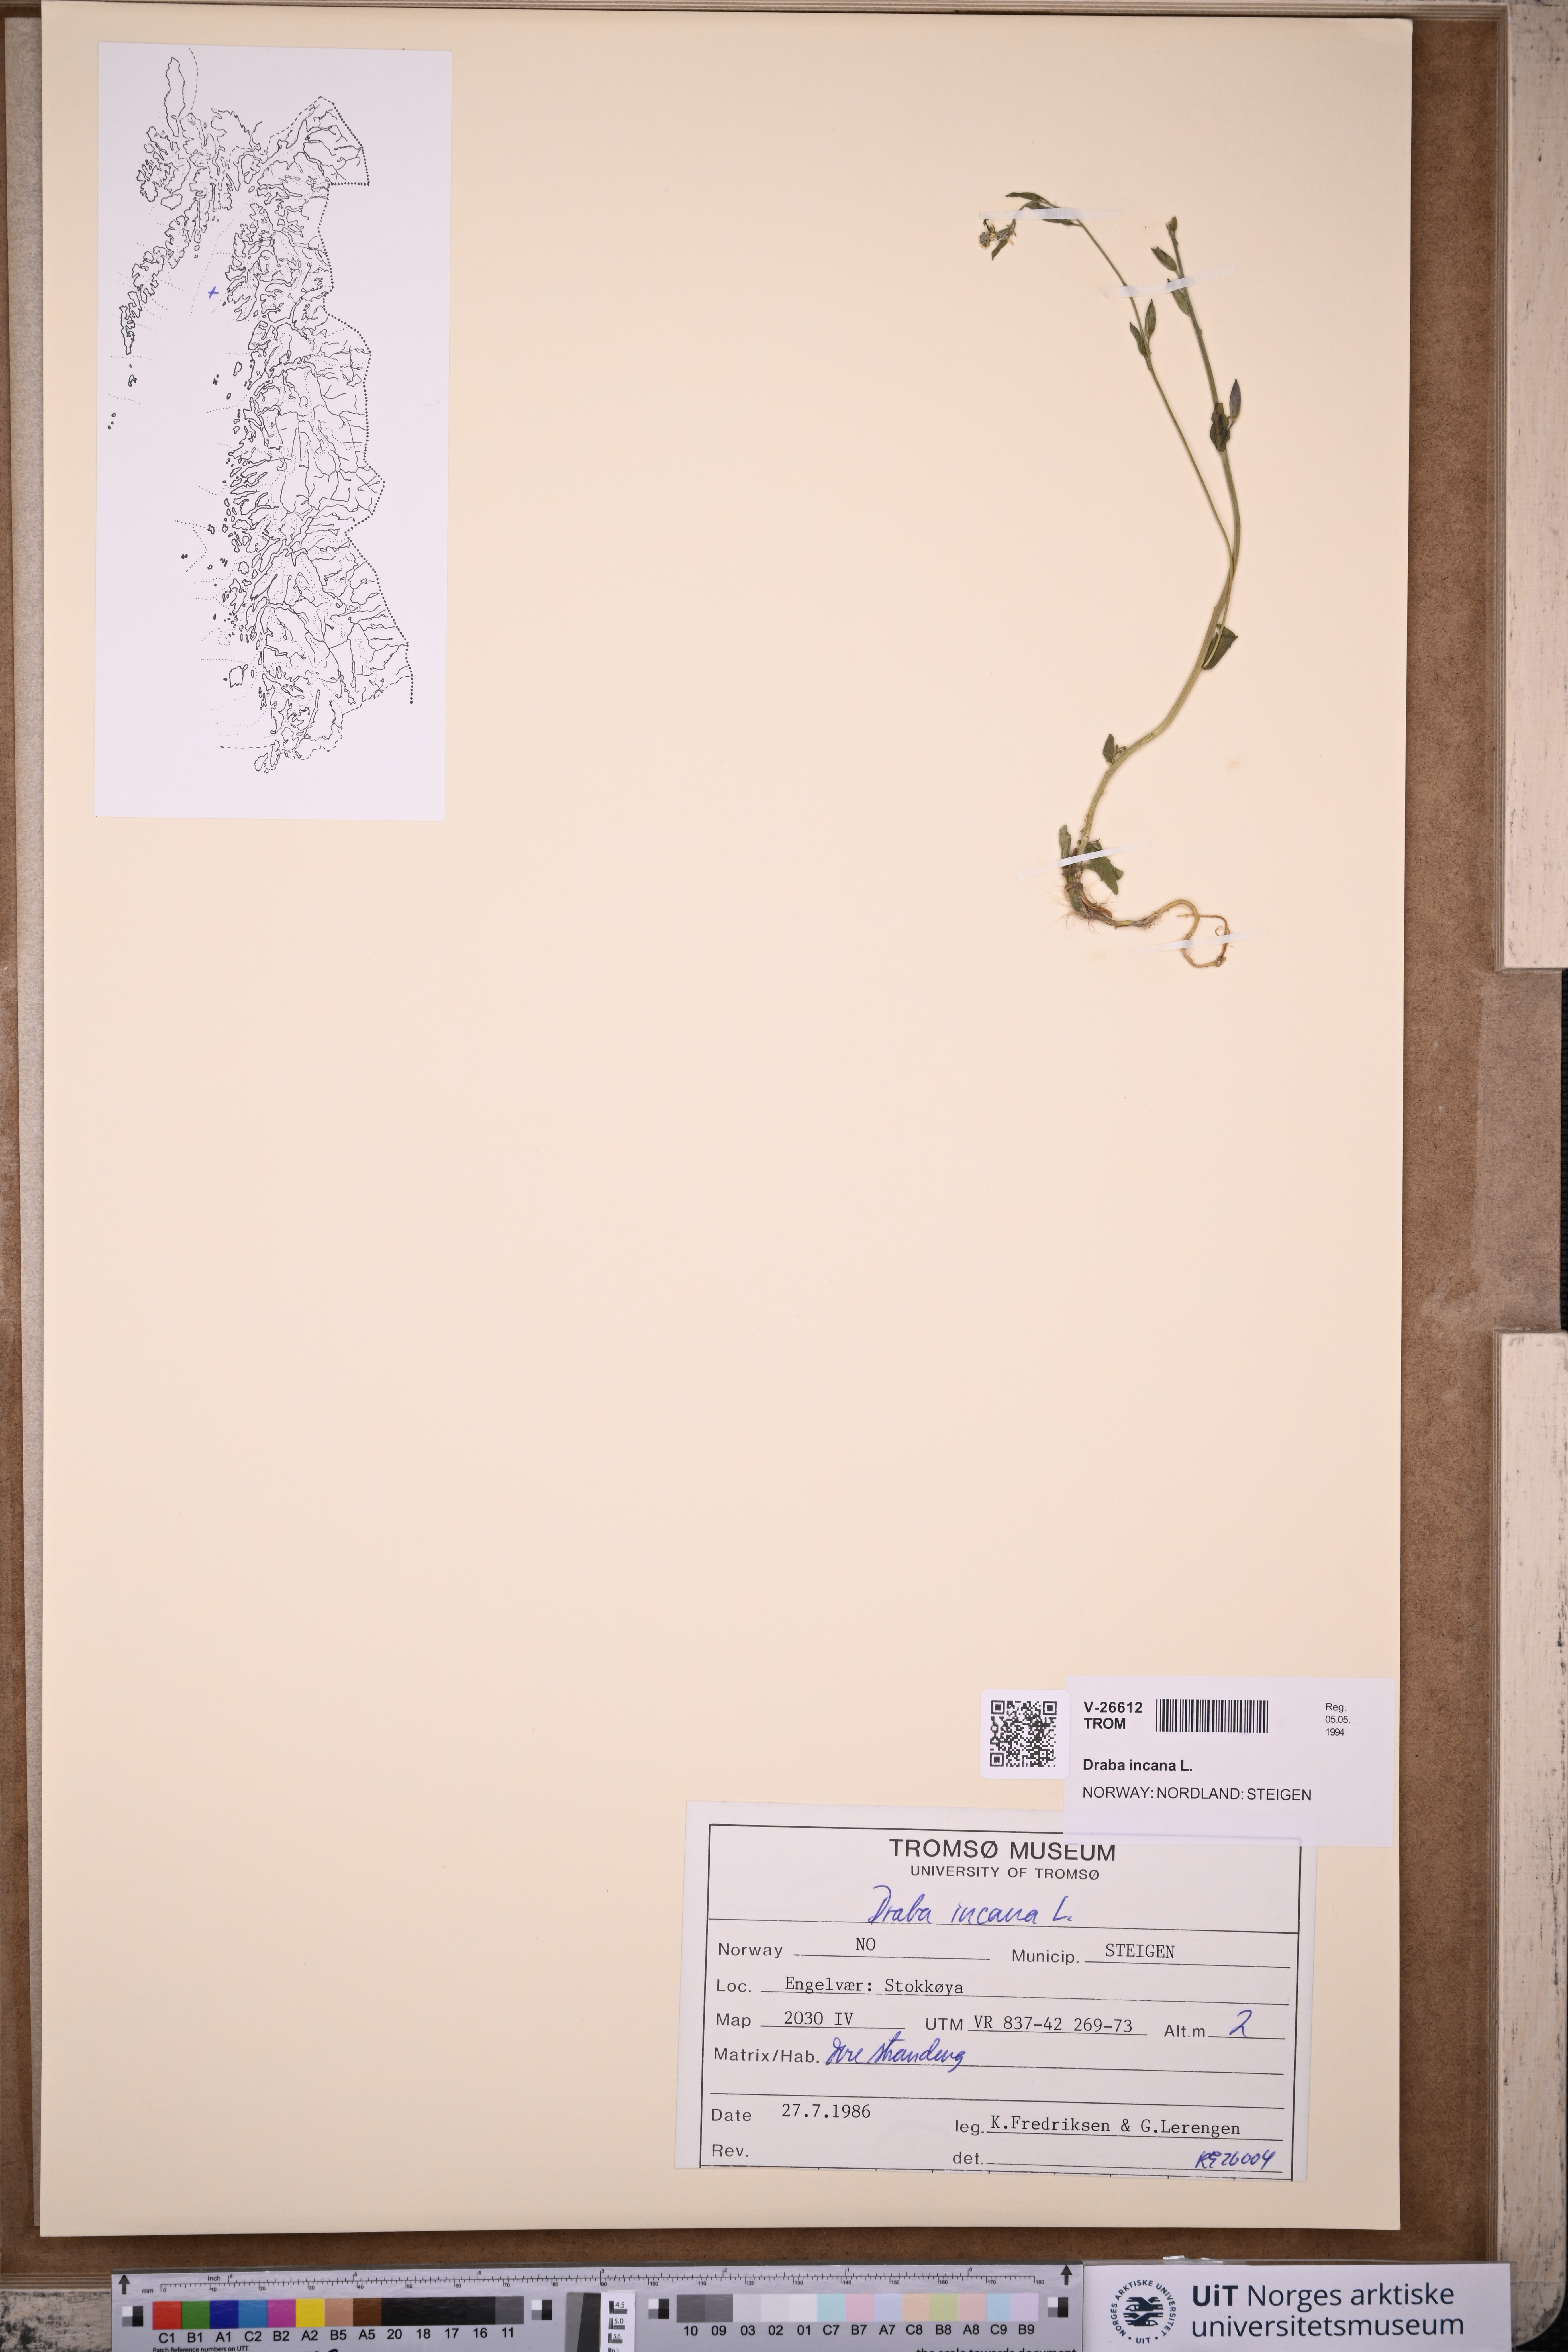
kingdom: Plantae
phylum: Tracheophyta
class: Magnoliopsida
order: Brassicales
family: Brassicaceae
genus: Draba
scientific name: Draba incana
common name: Hoary whitlow-grass
